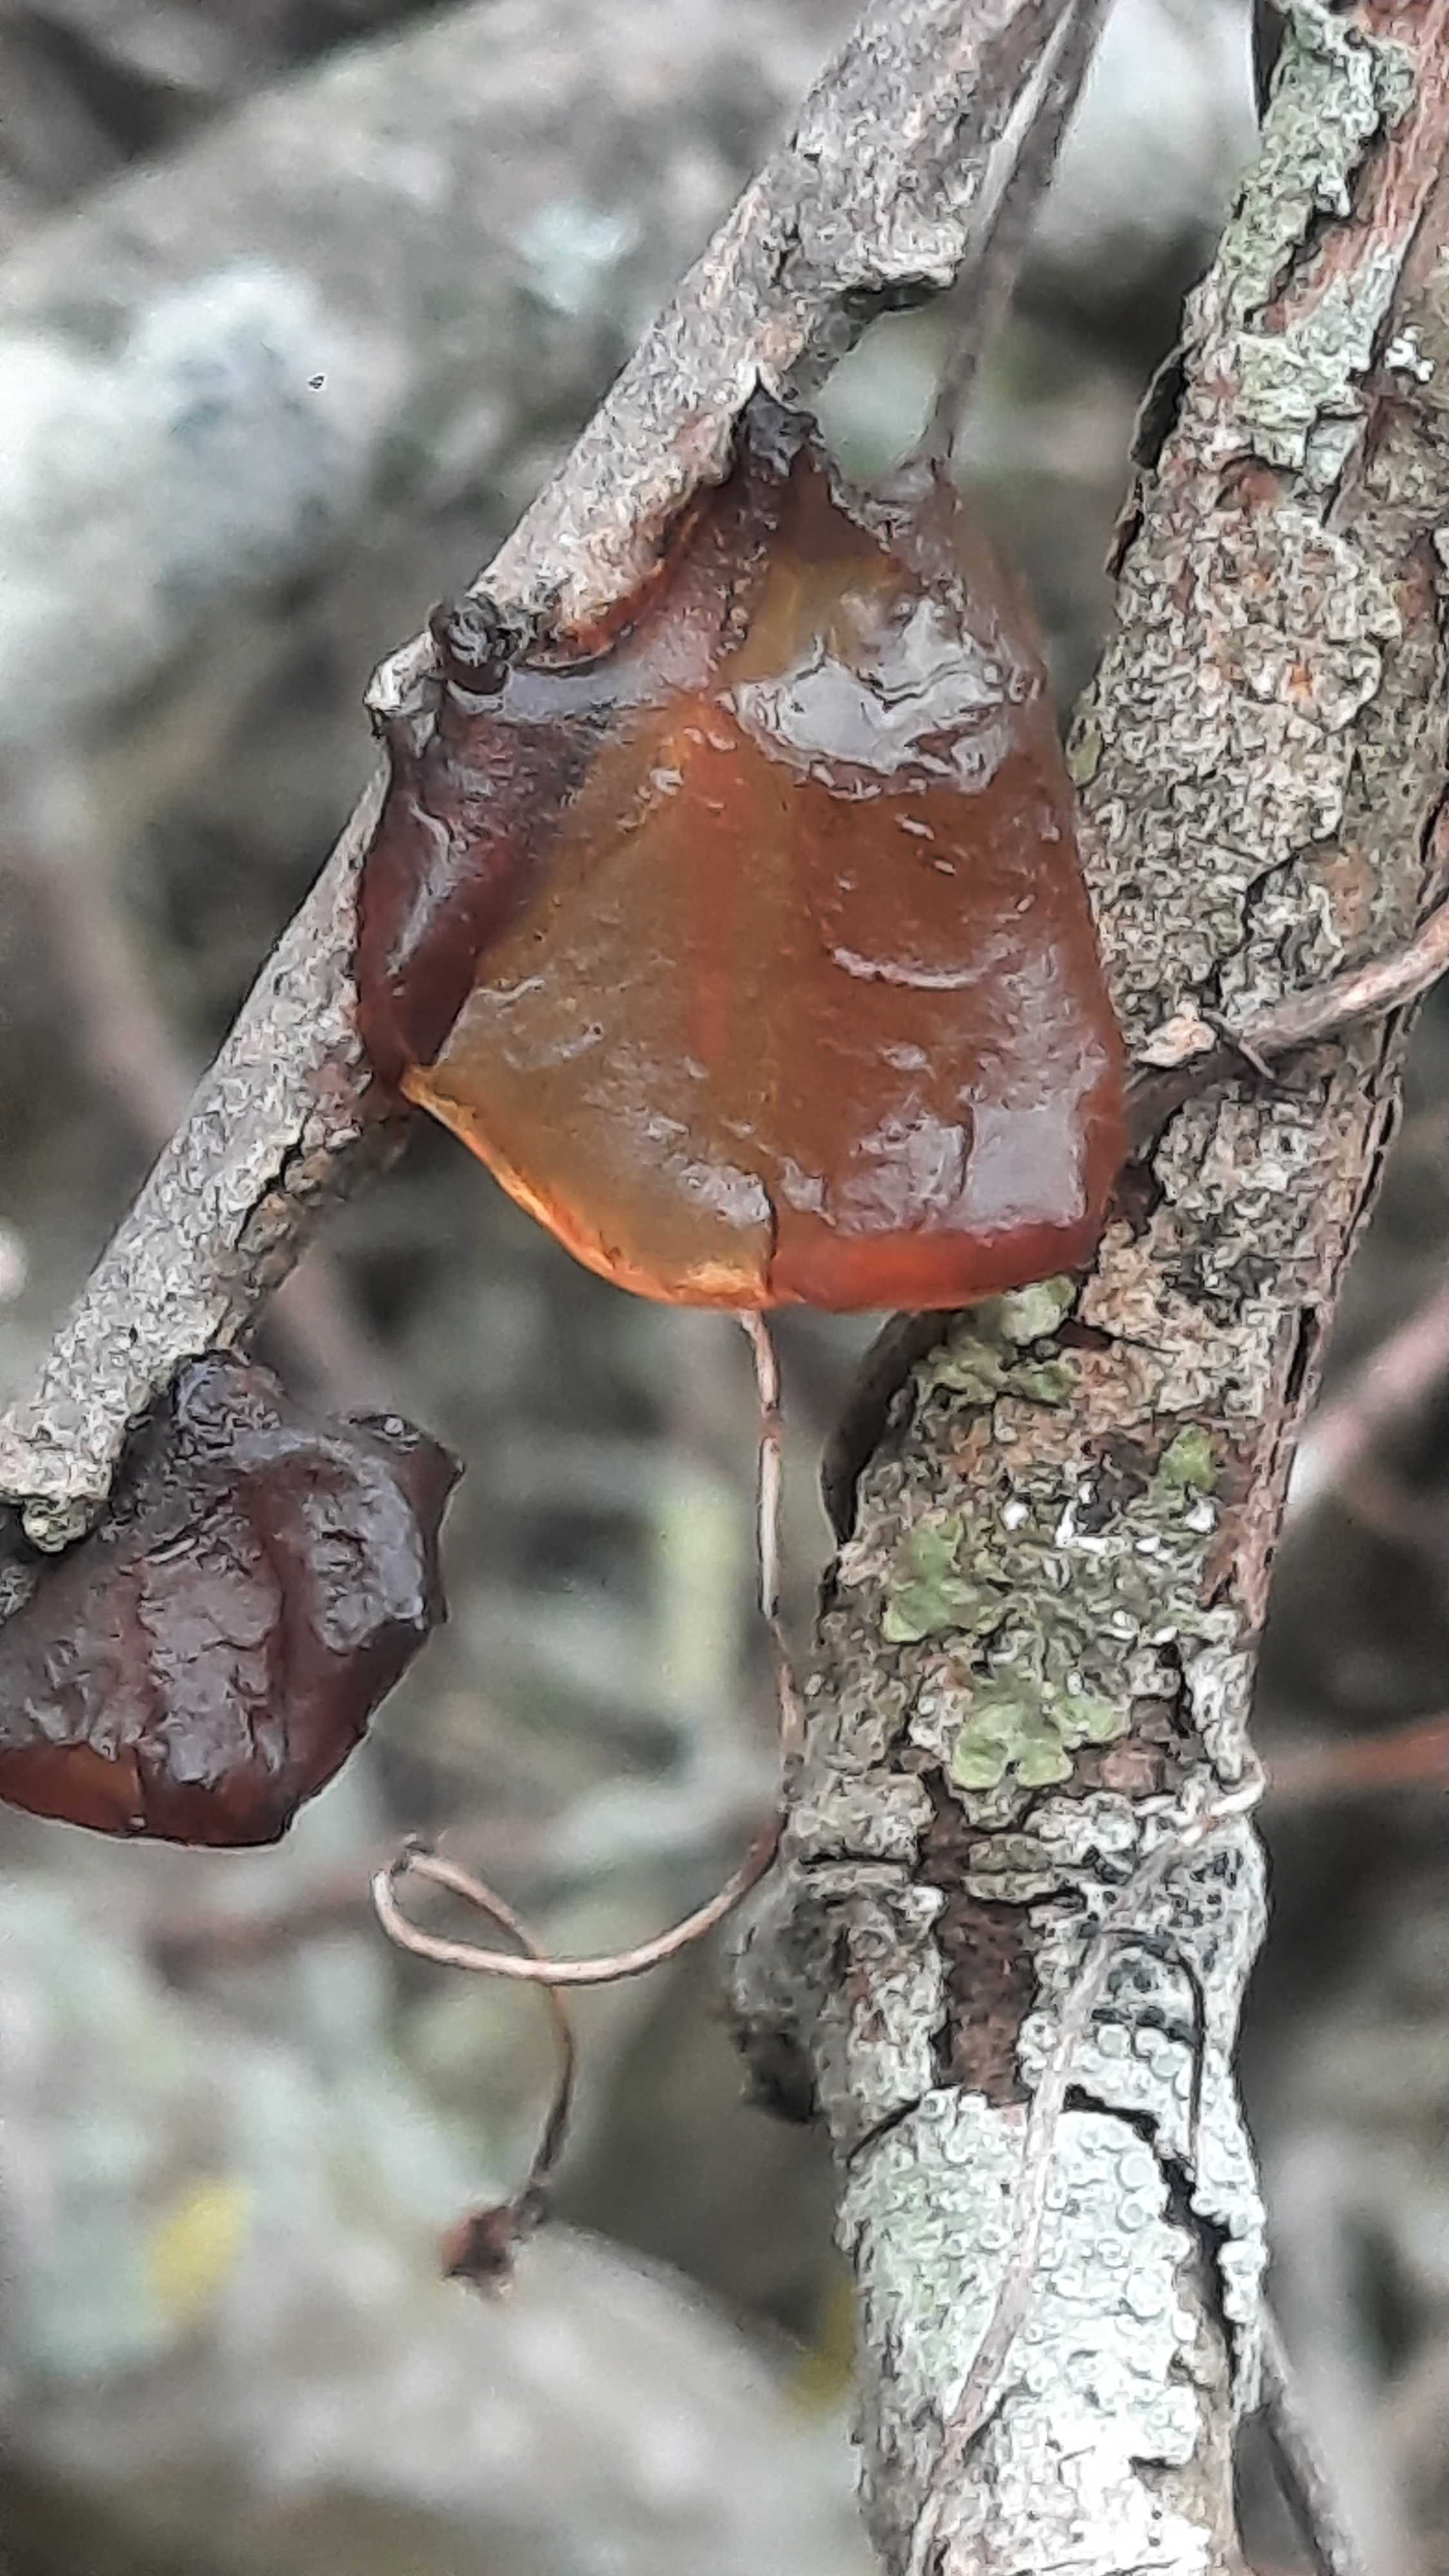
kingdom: Fungi
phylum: Basidiomycota
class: Agaricomycetes
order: Auriculariales
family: Auriculariaceae
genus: Exidia
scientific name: Exidia recisa
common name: pile-bævretop
